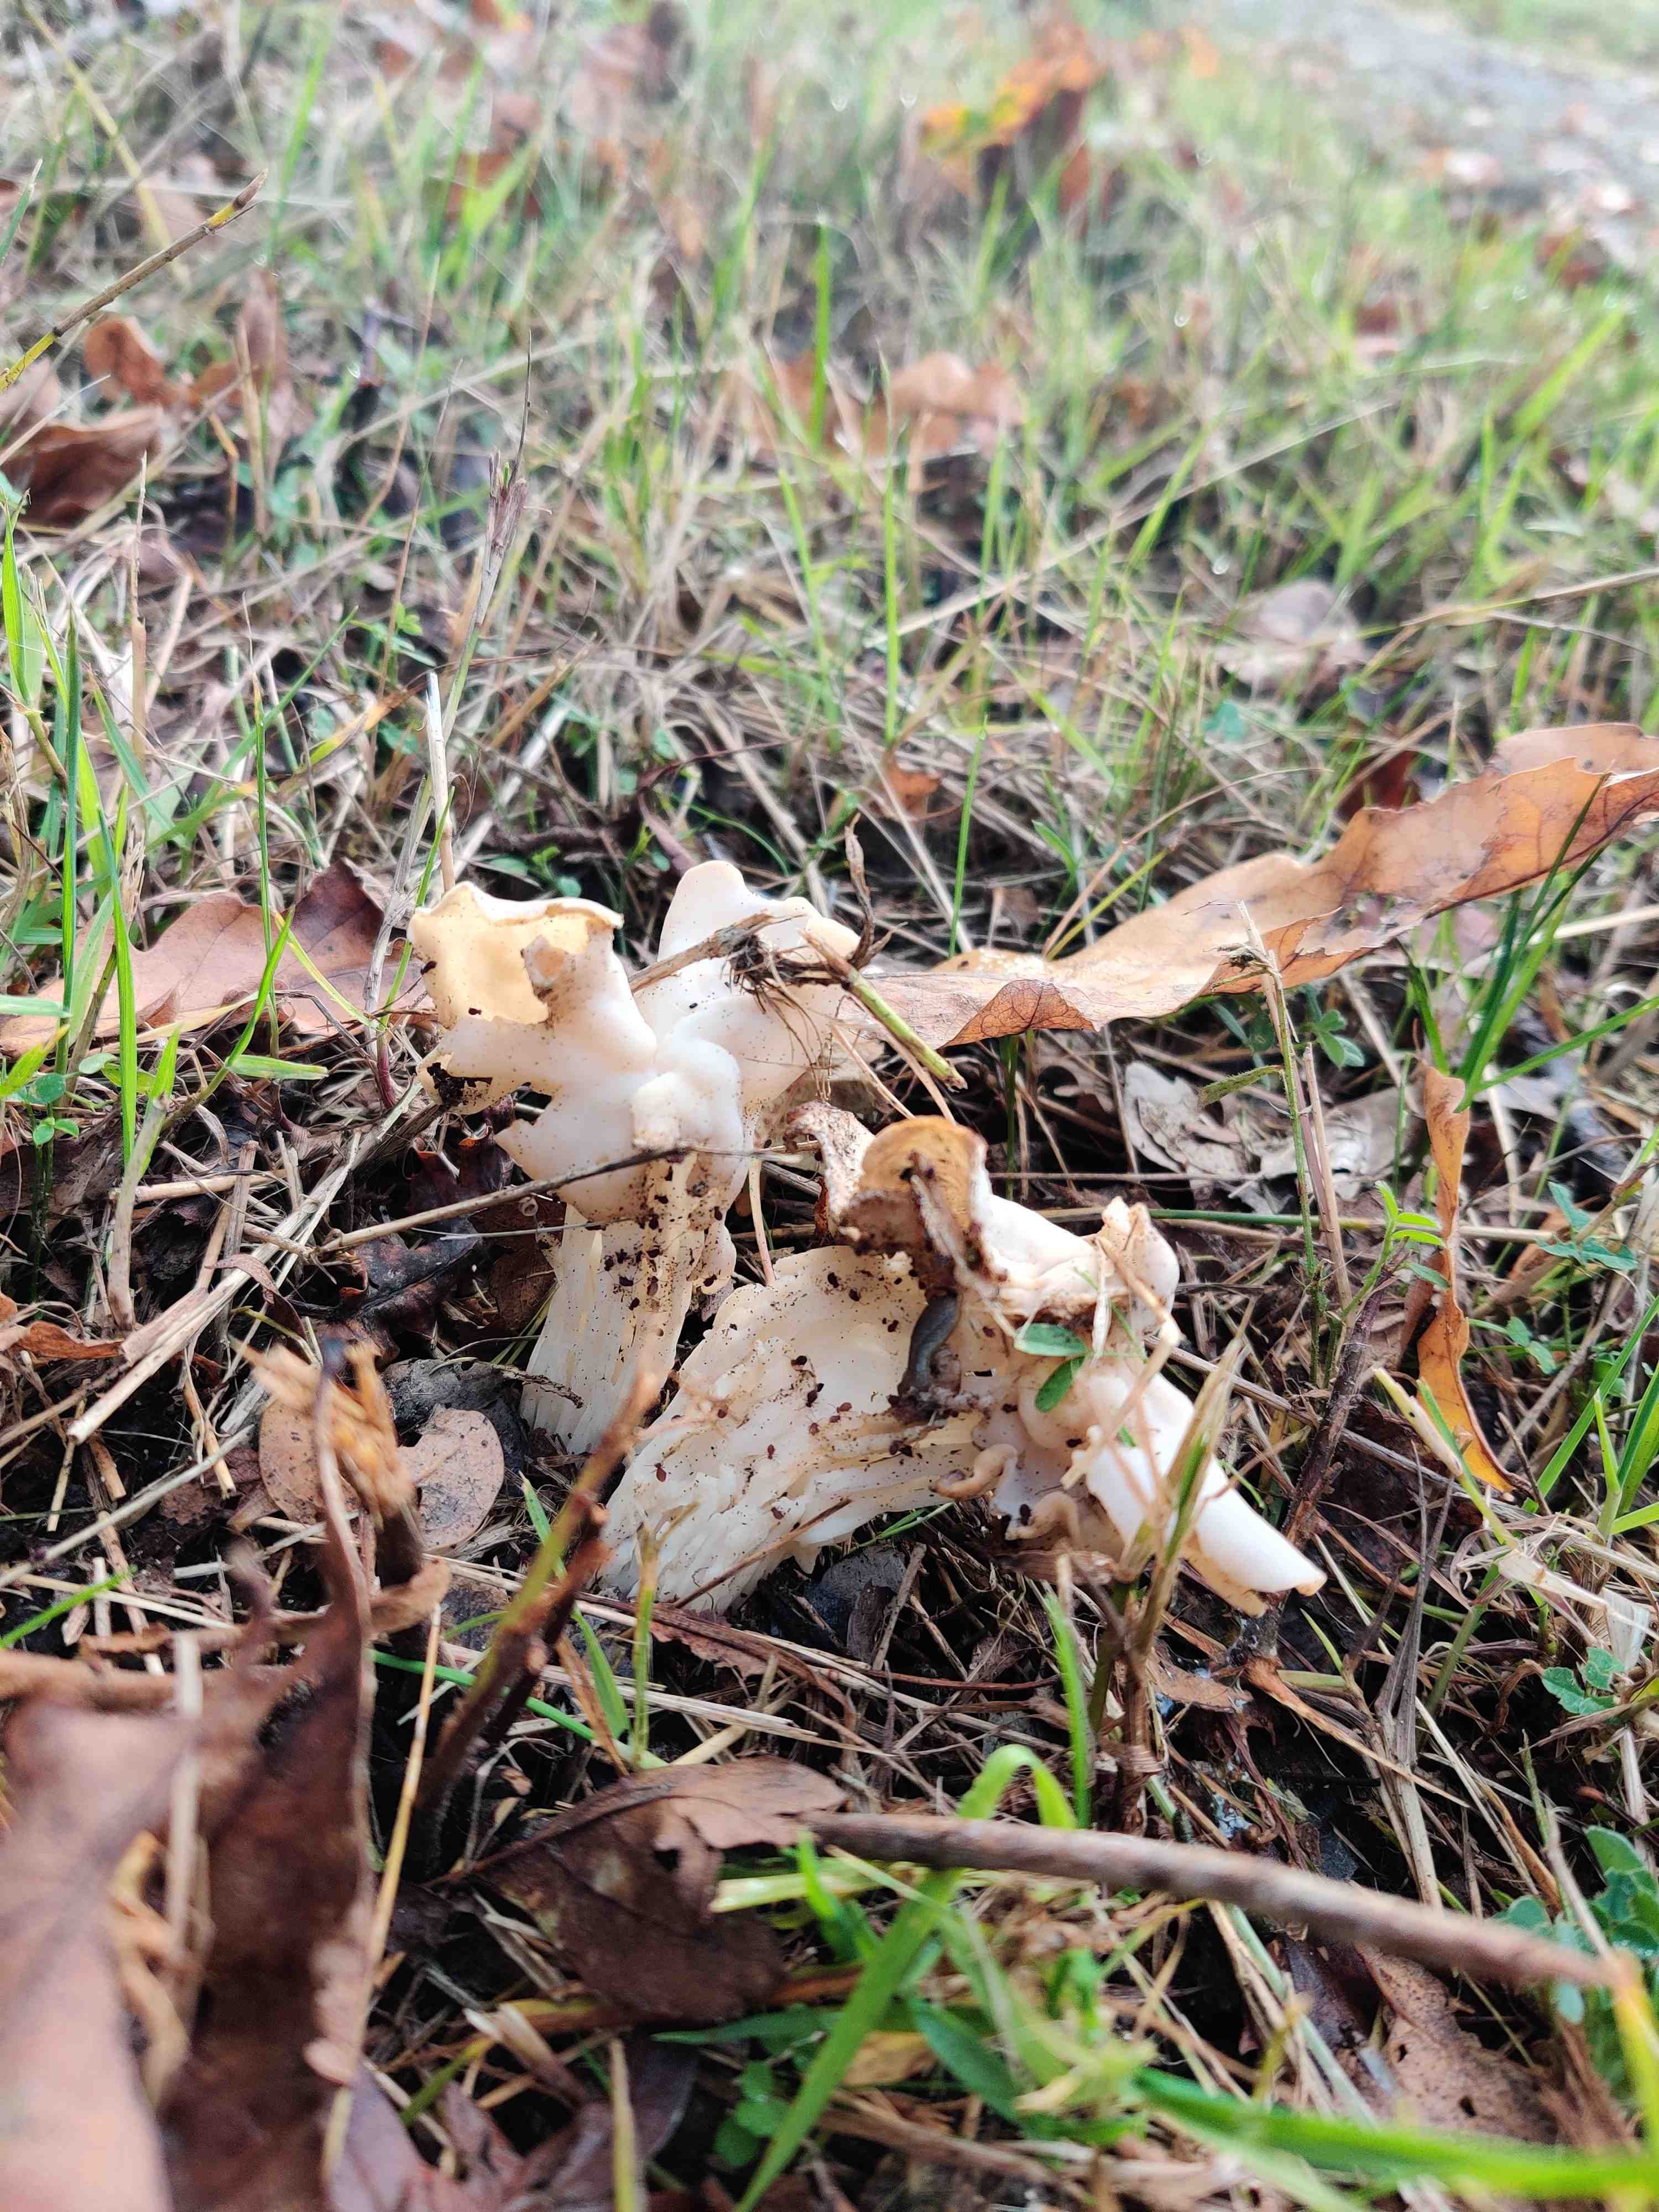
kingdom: Fungi
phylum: Ascomycota
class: Pezizomycetes
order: Pezizales
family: Helvellaceae
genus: Helvella
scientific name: Helvella crispa
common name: kruset foldhat
